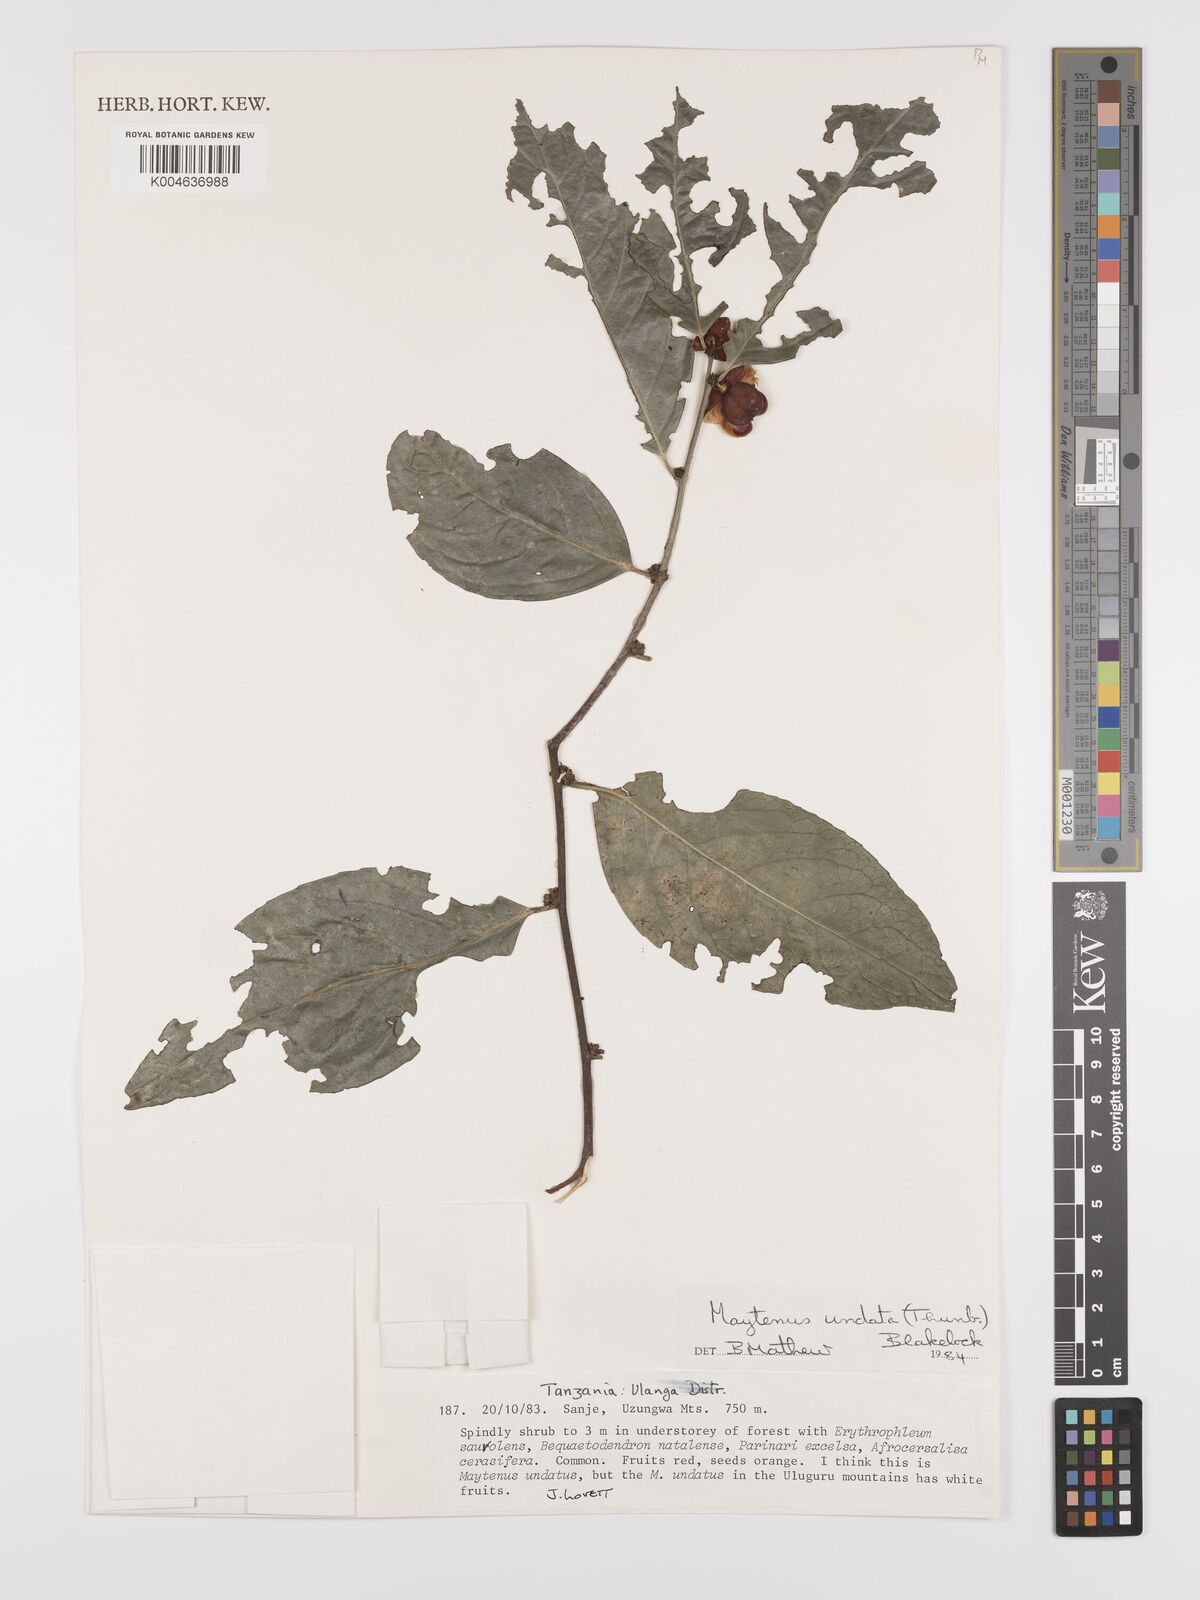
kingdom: Plantae
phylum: Tracheophyta
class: Magnoliopsida
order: Celastrales
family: Celastraceae
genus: Gymnosporia
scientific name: Gymnosporia undata
